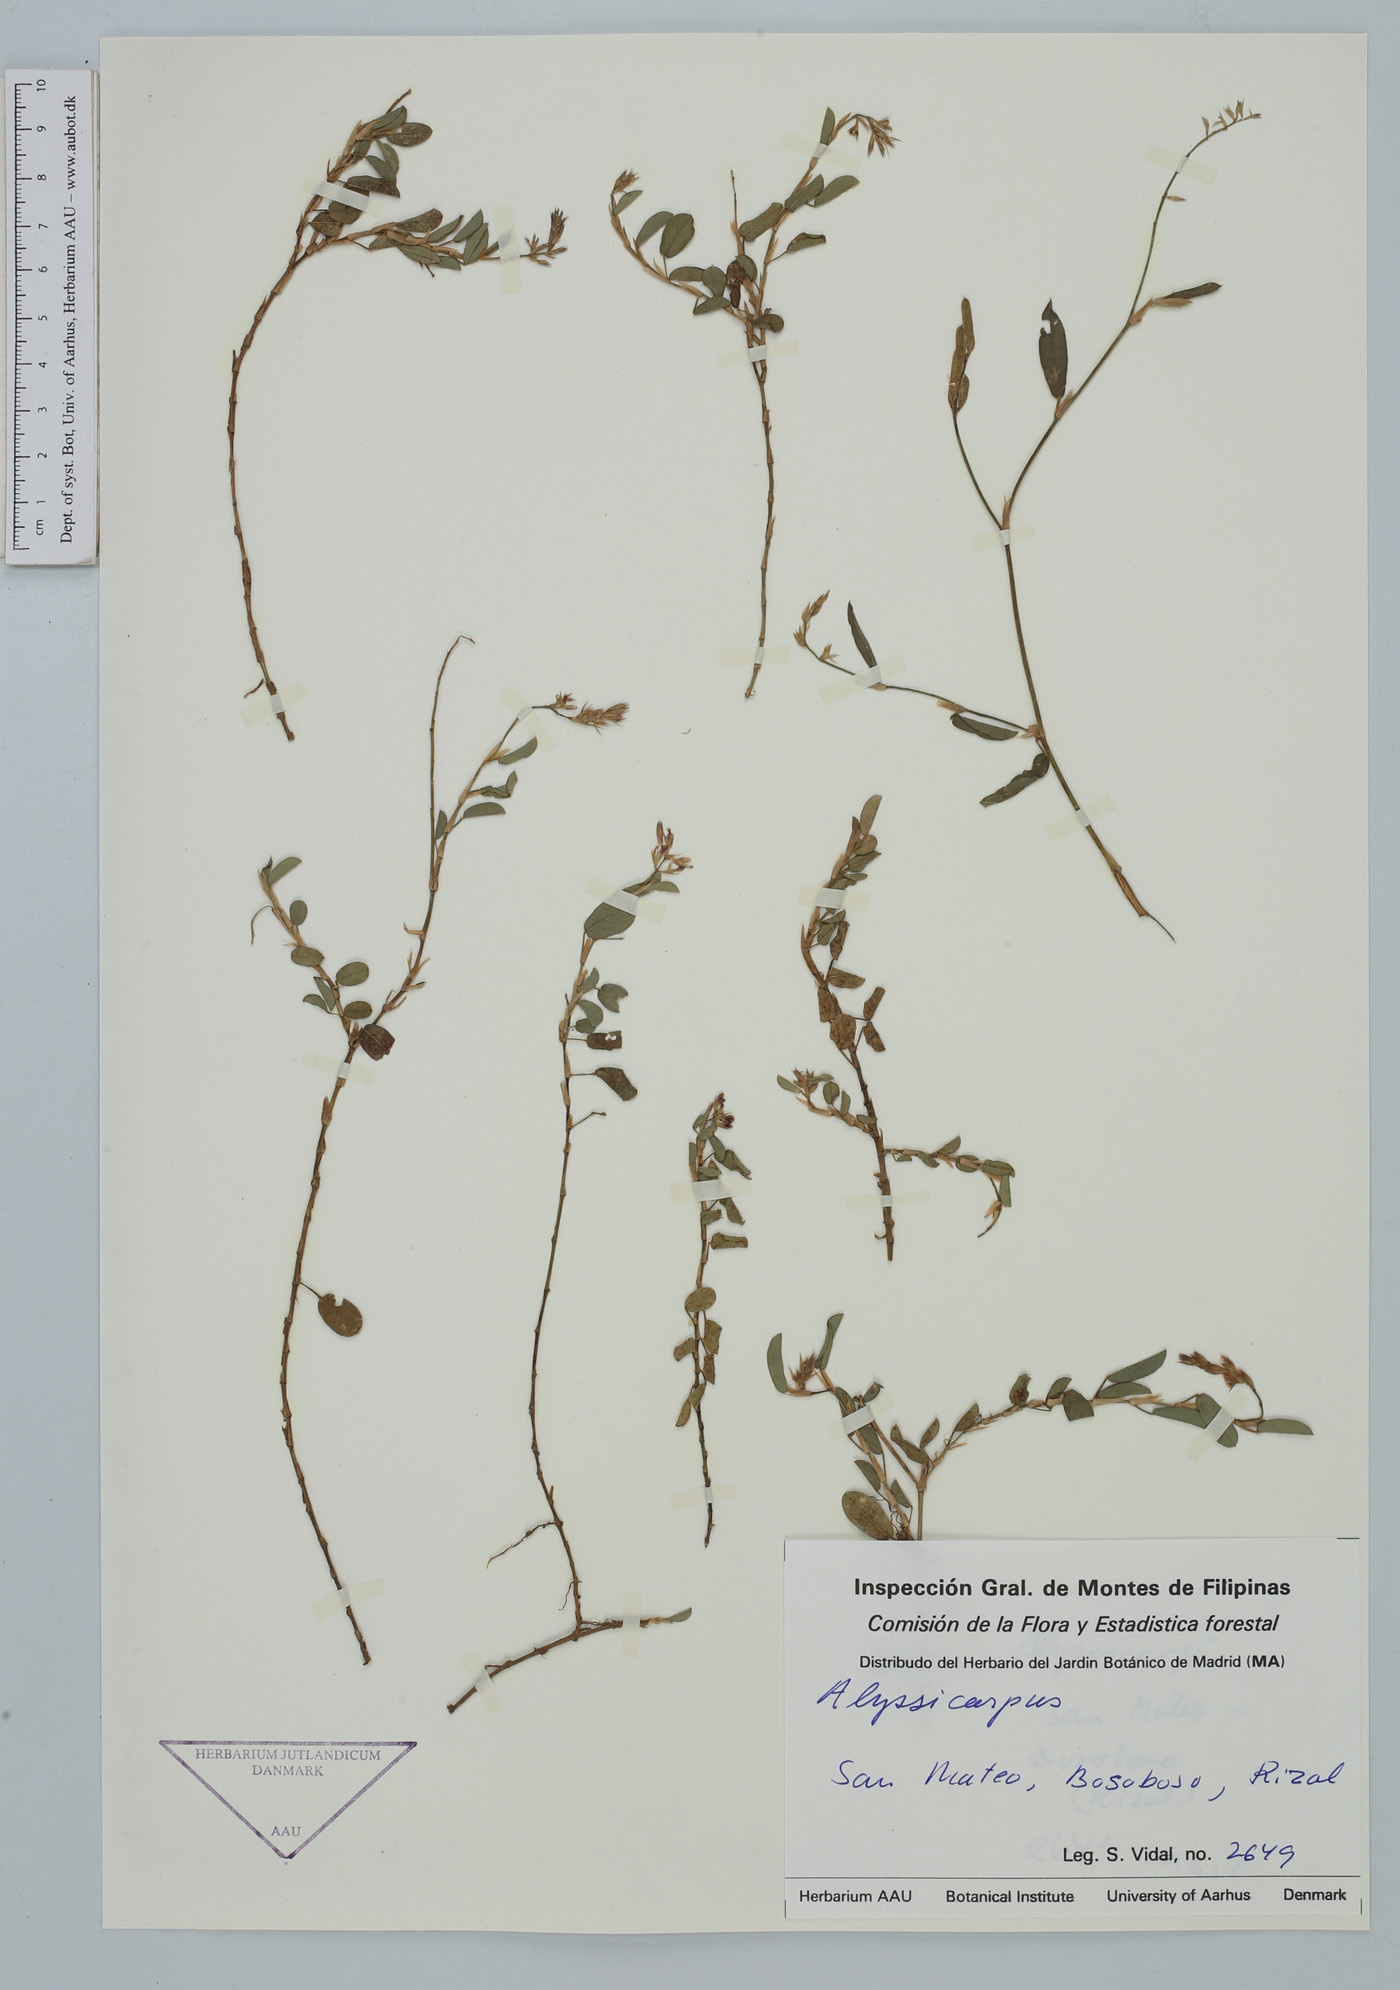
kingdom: Plantae
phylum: Tracheophyta
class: Magnoliopsida
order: Fabales
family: Fabaceae
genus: Alysicarpus
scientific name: Alysicarpus
